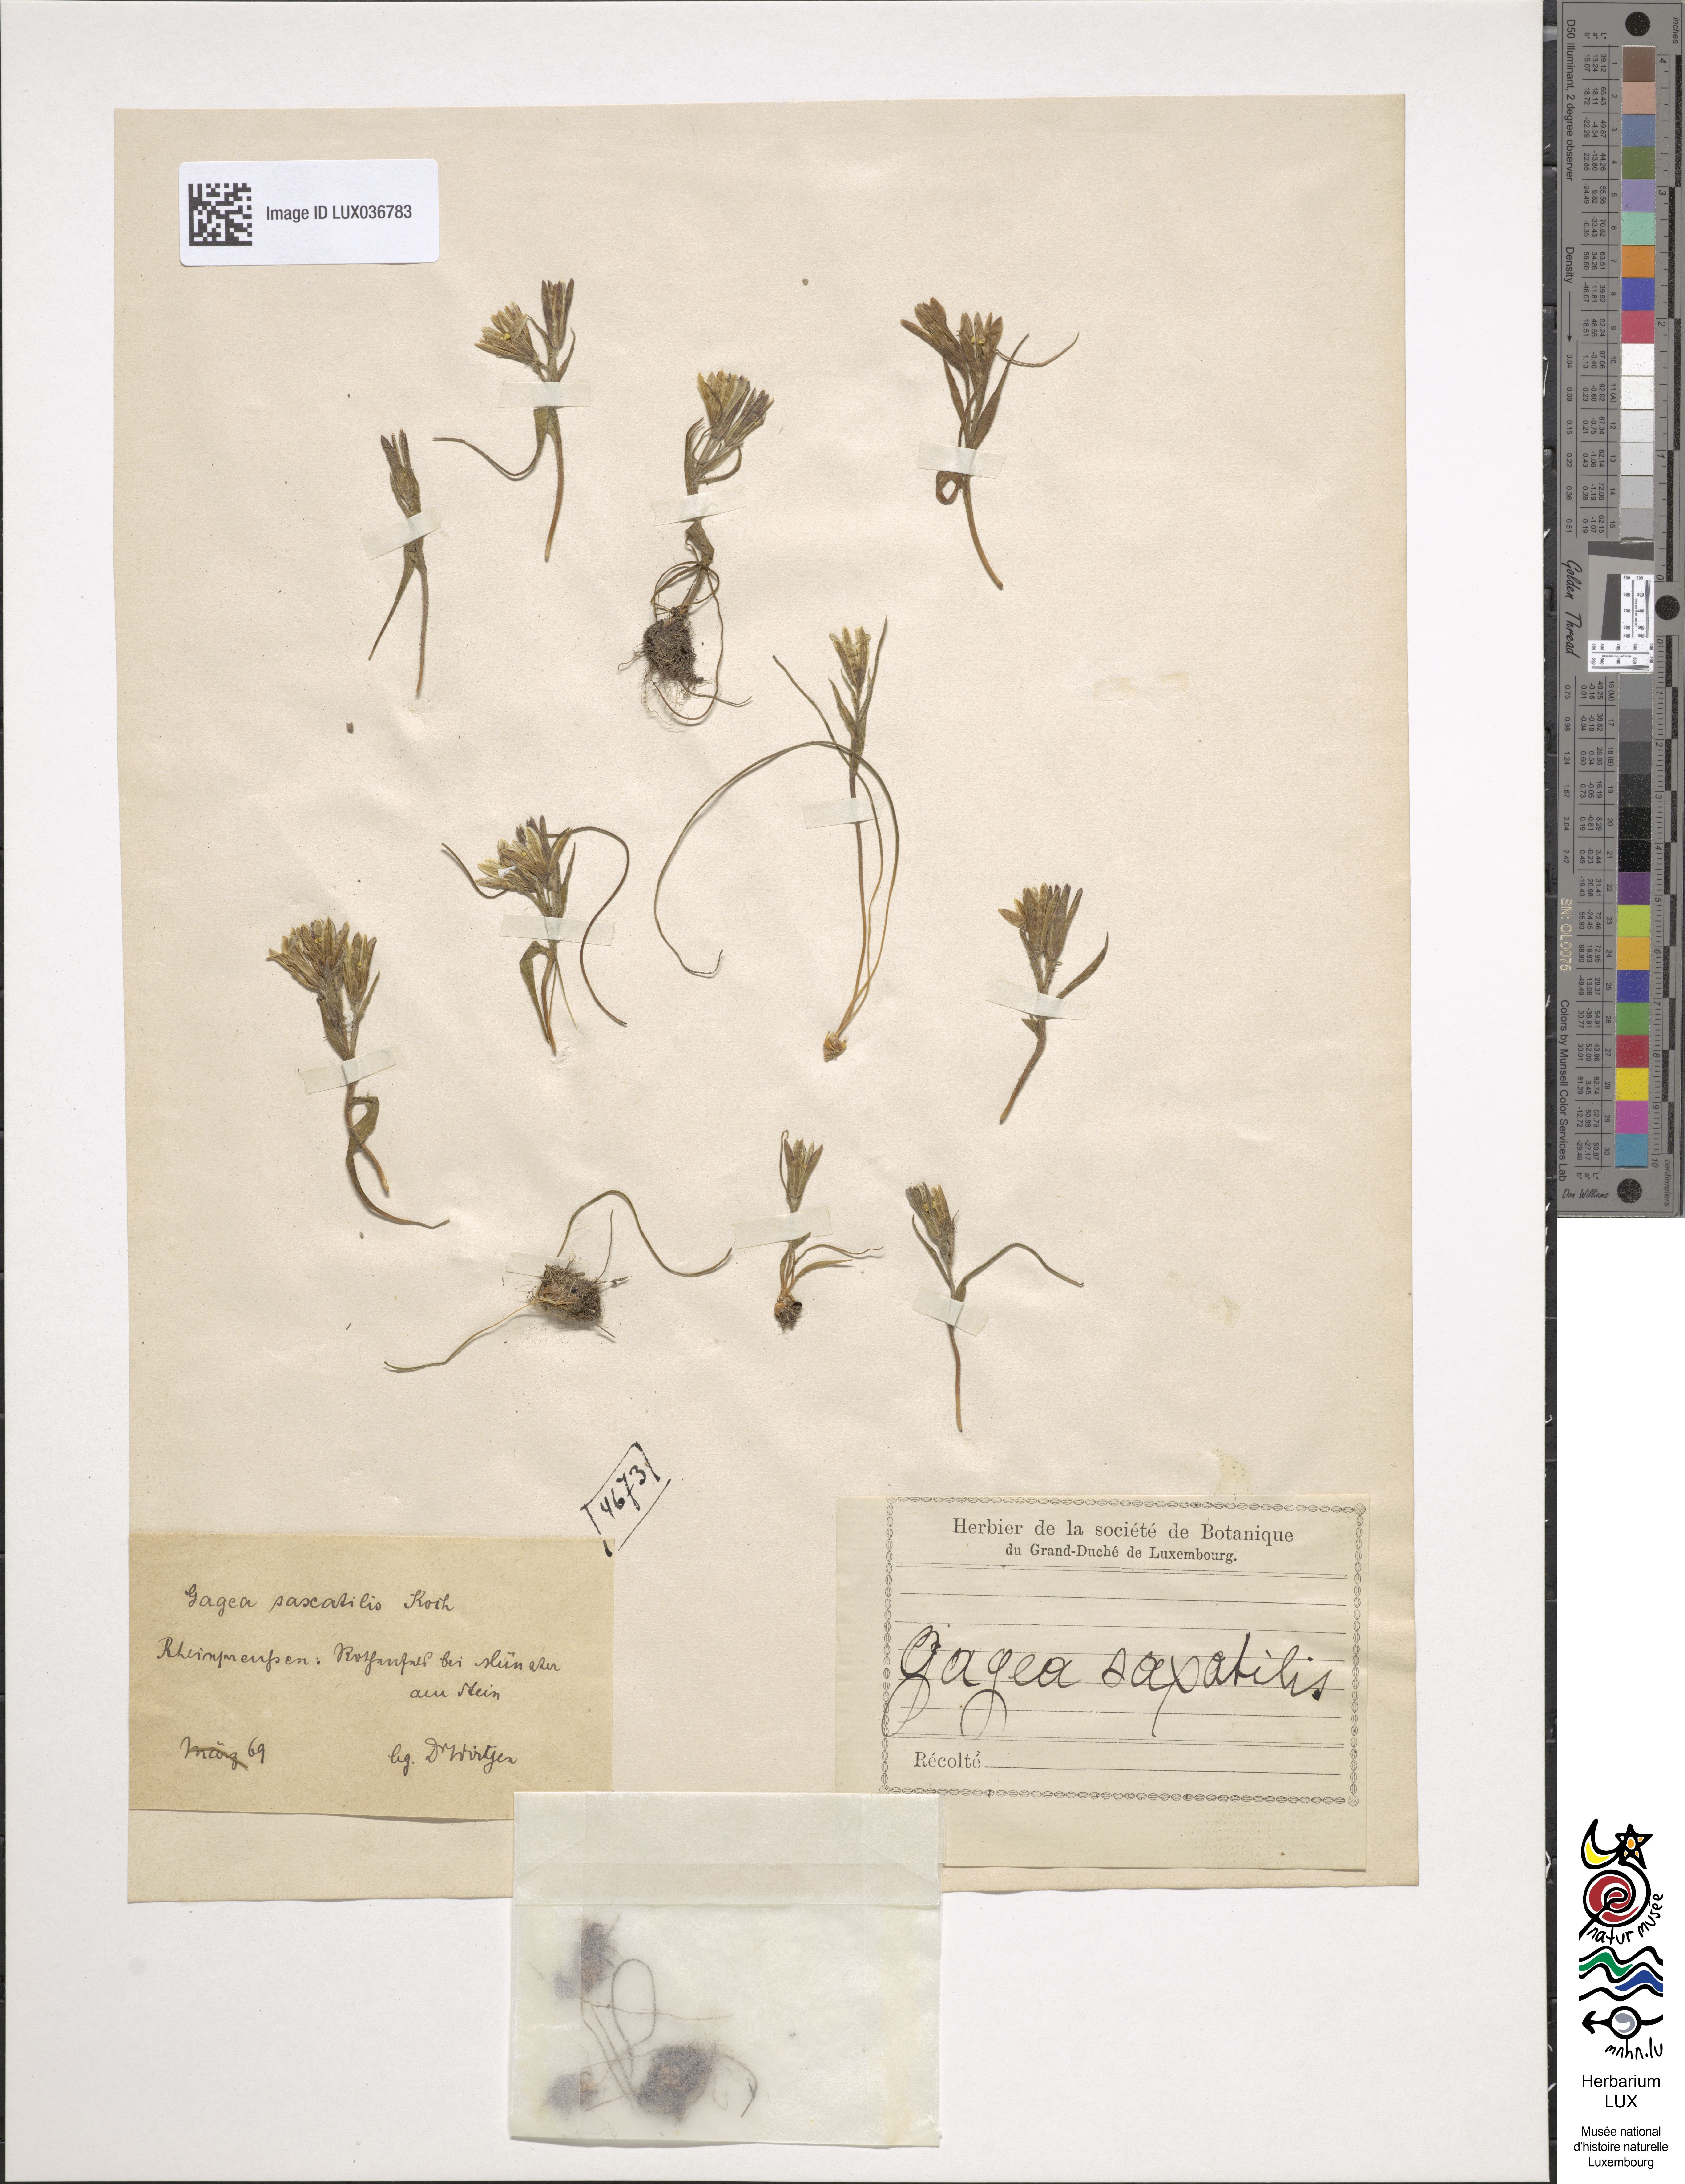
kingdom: Plantae
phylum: Tracheophyta
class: Liliopsida
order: Liliales
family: Liliaceae
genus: Gagea
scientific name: Gagea bohemica
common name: Early star-of-bethlehem
